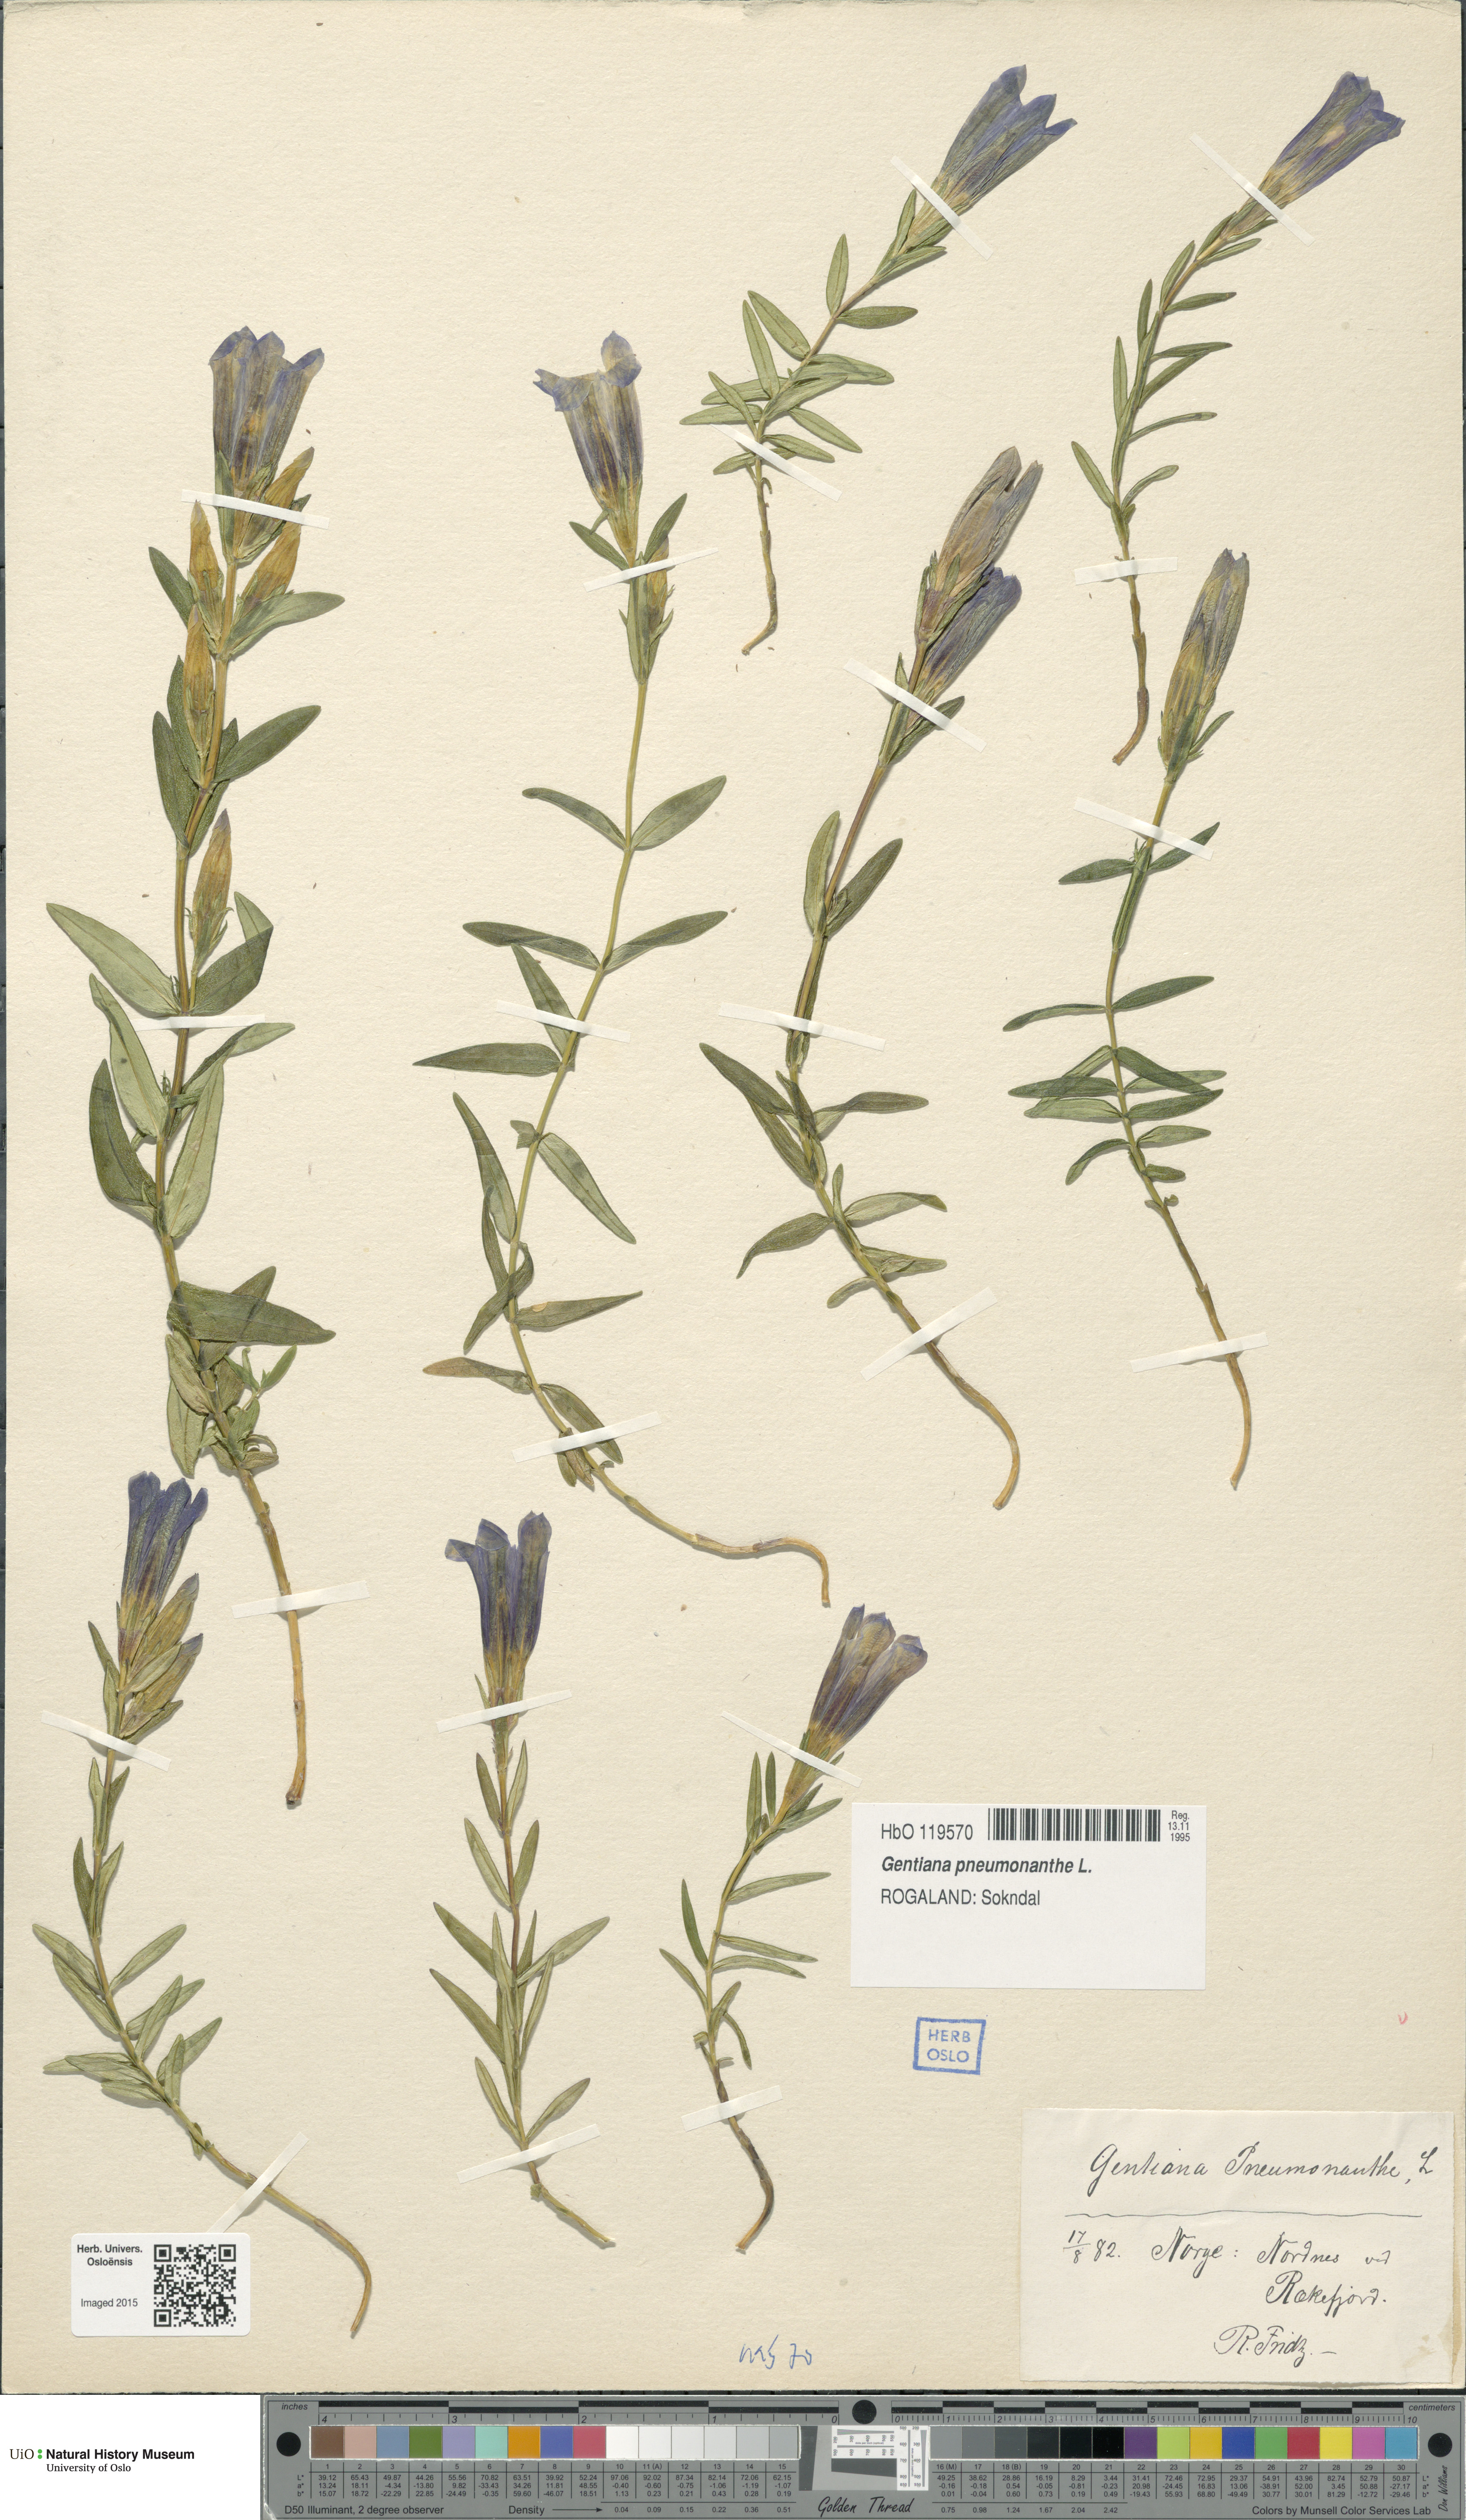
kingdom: Plantae
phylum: Tracheophyta
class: Magnoliopsida
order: Gentianales
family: Gentianaceae
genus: Gentiana
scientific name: Gentiana pneumonanthe
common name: Marsh gentian
